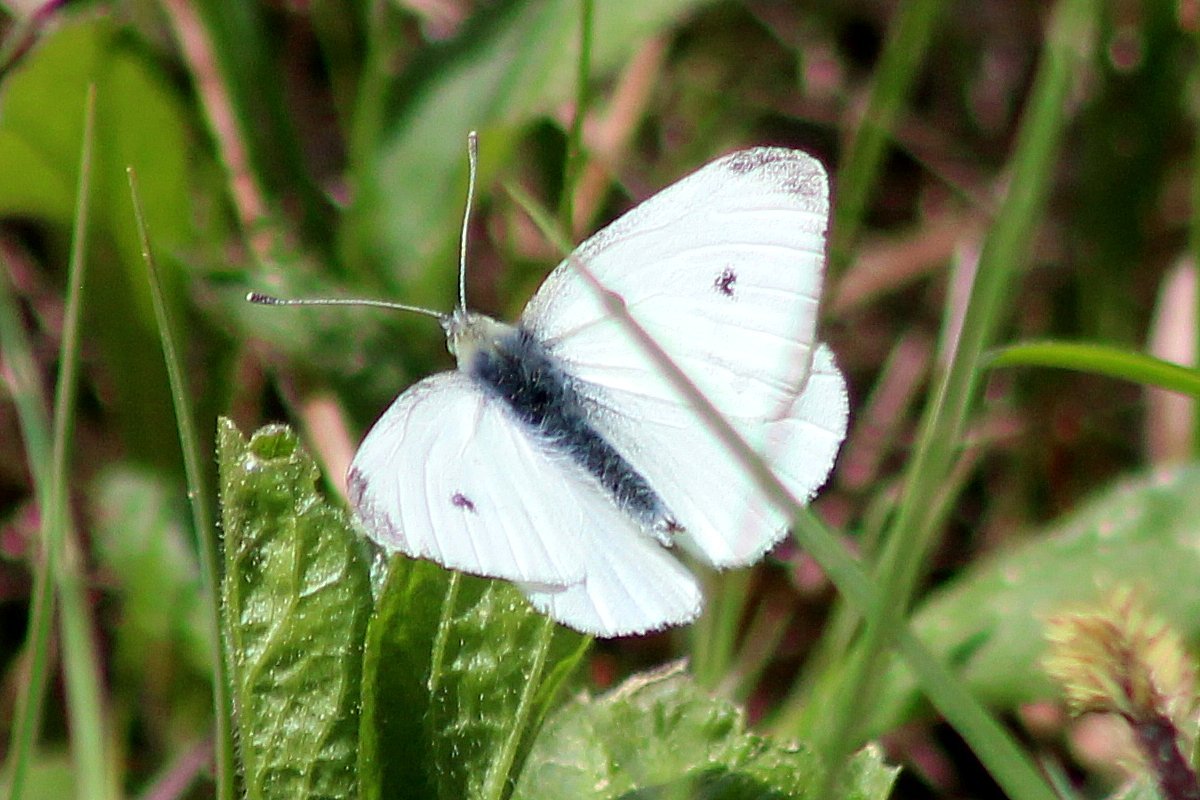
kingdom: Animalia
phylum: Arthropoda
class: Insecta
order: Lepidoptera
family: Pieridae
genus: Pieris
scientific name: Pieris rapae
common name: Cabbage White
